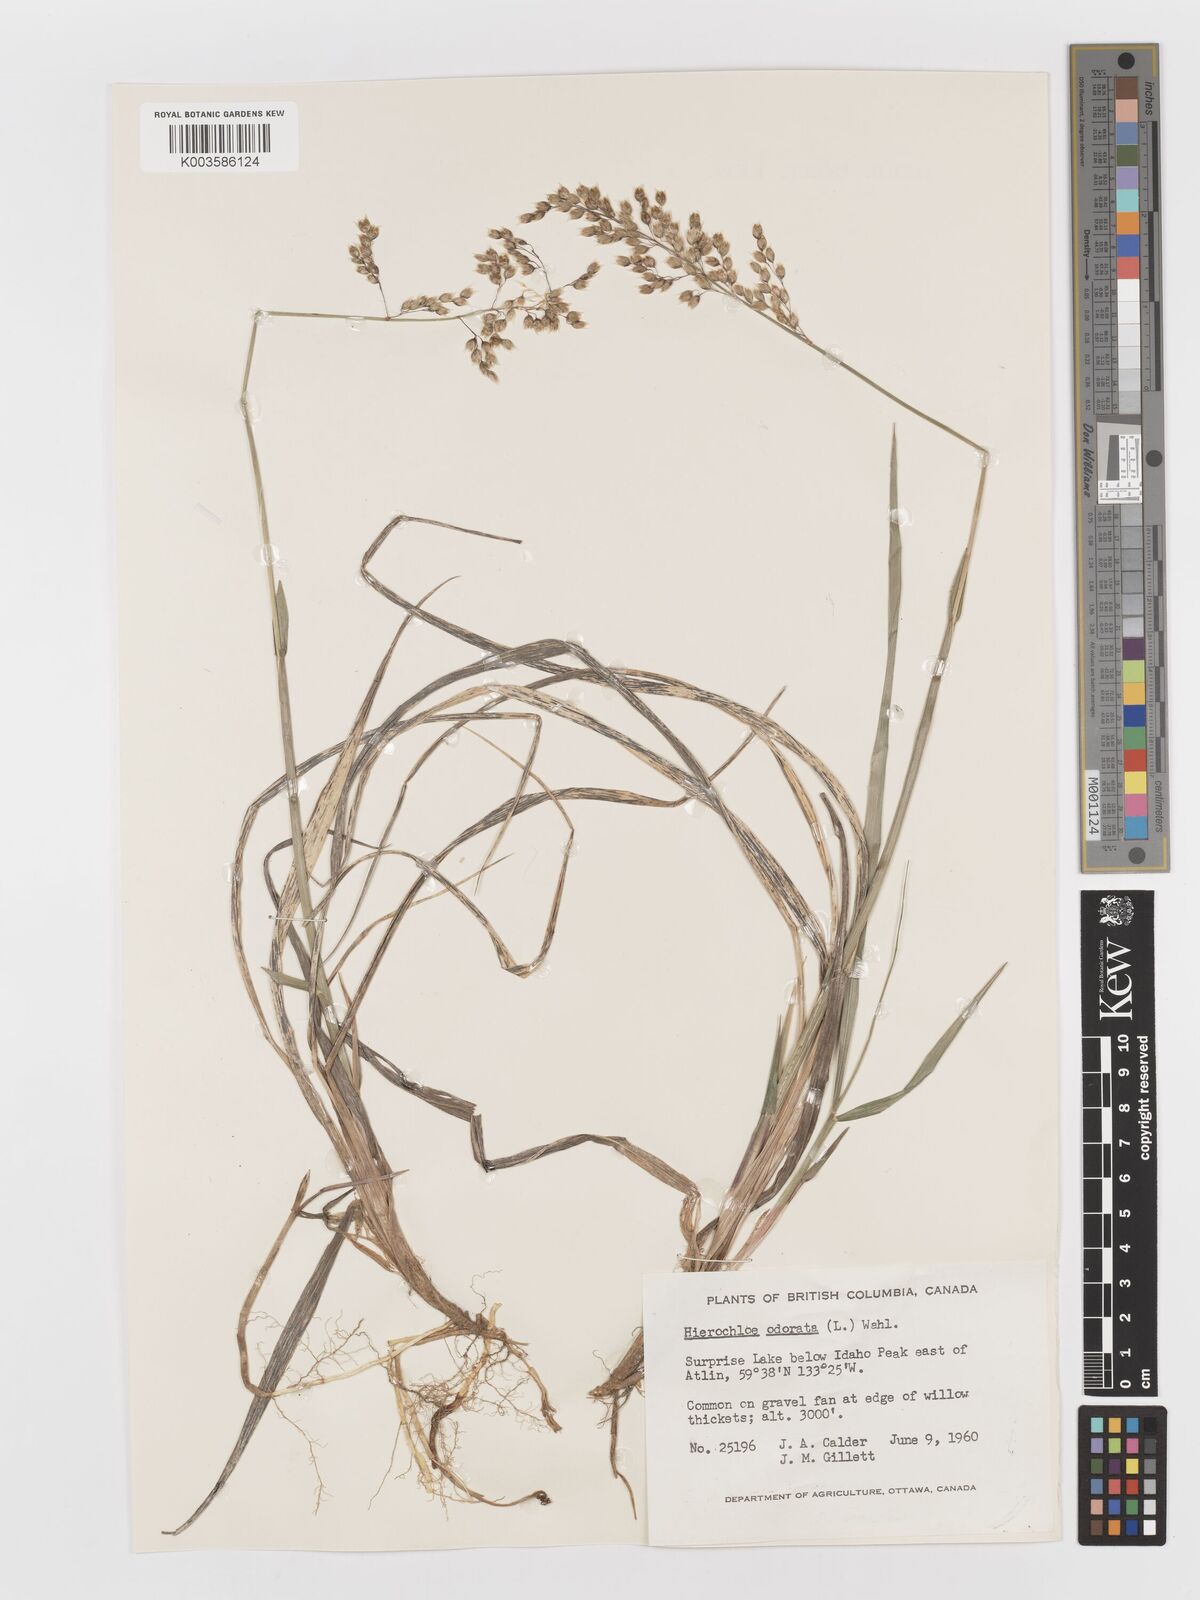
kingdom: Plantae
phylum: Tracheophyta
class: Liliopsida
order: Poales
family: Poaceae
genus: Anthoxanthum
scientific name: Anthoxanthum nitens
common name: Holy grass
